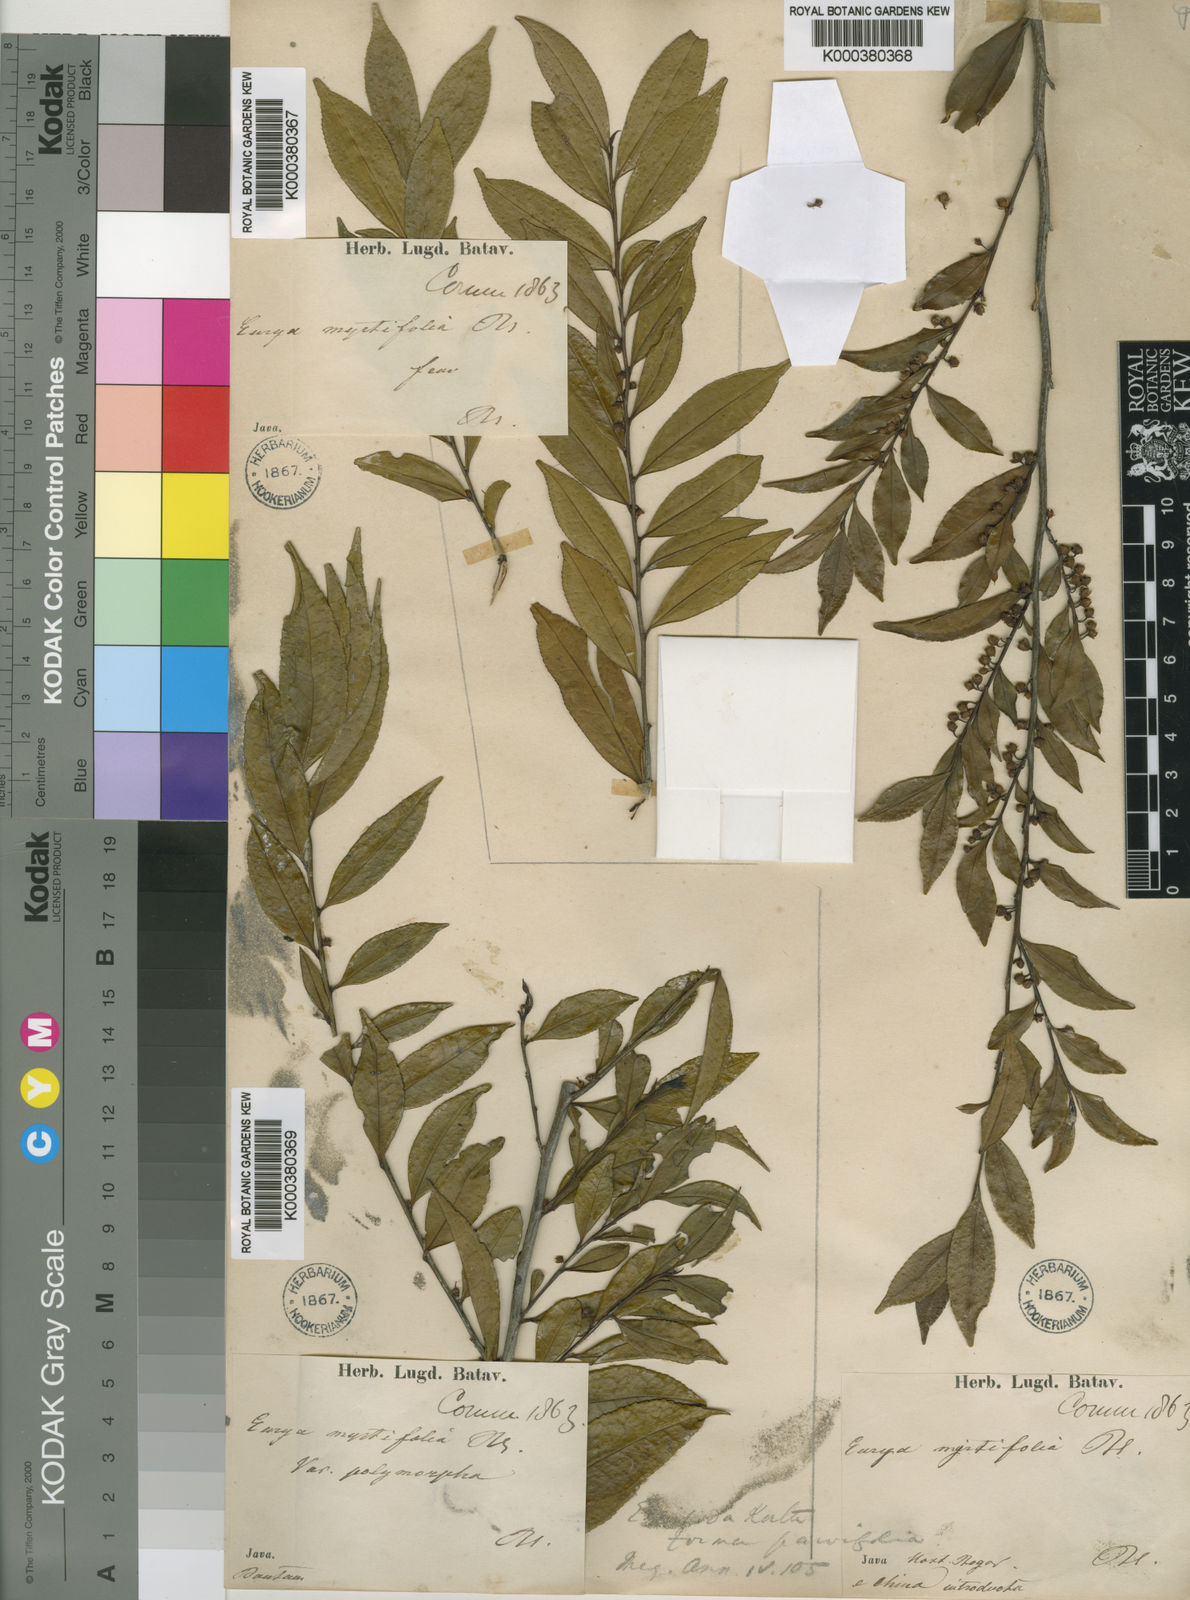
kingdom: Plantae
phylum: Tracheophyta
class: Magnoliopsida
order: Ericales
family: Pentaphylacaceae
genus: Eurya
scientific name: Eurya nitida
